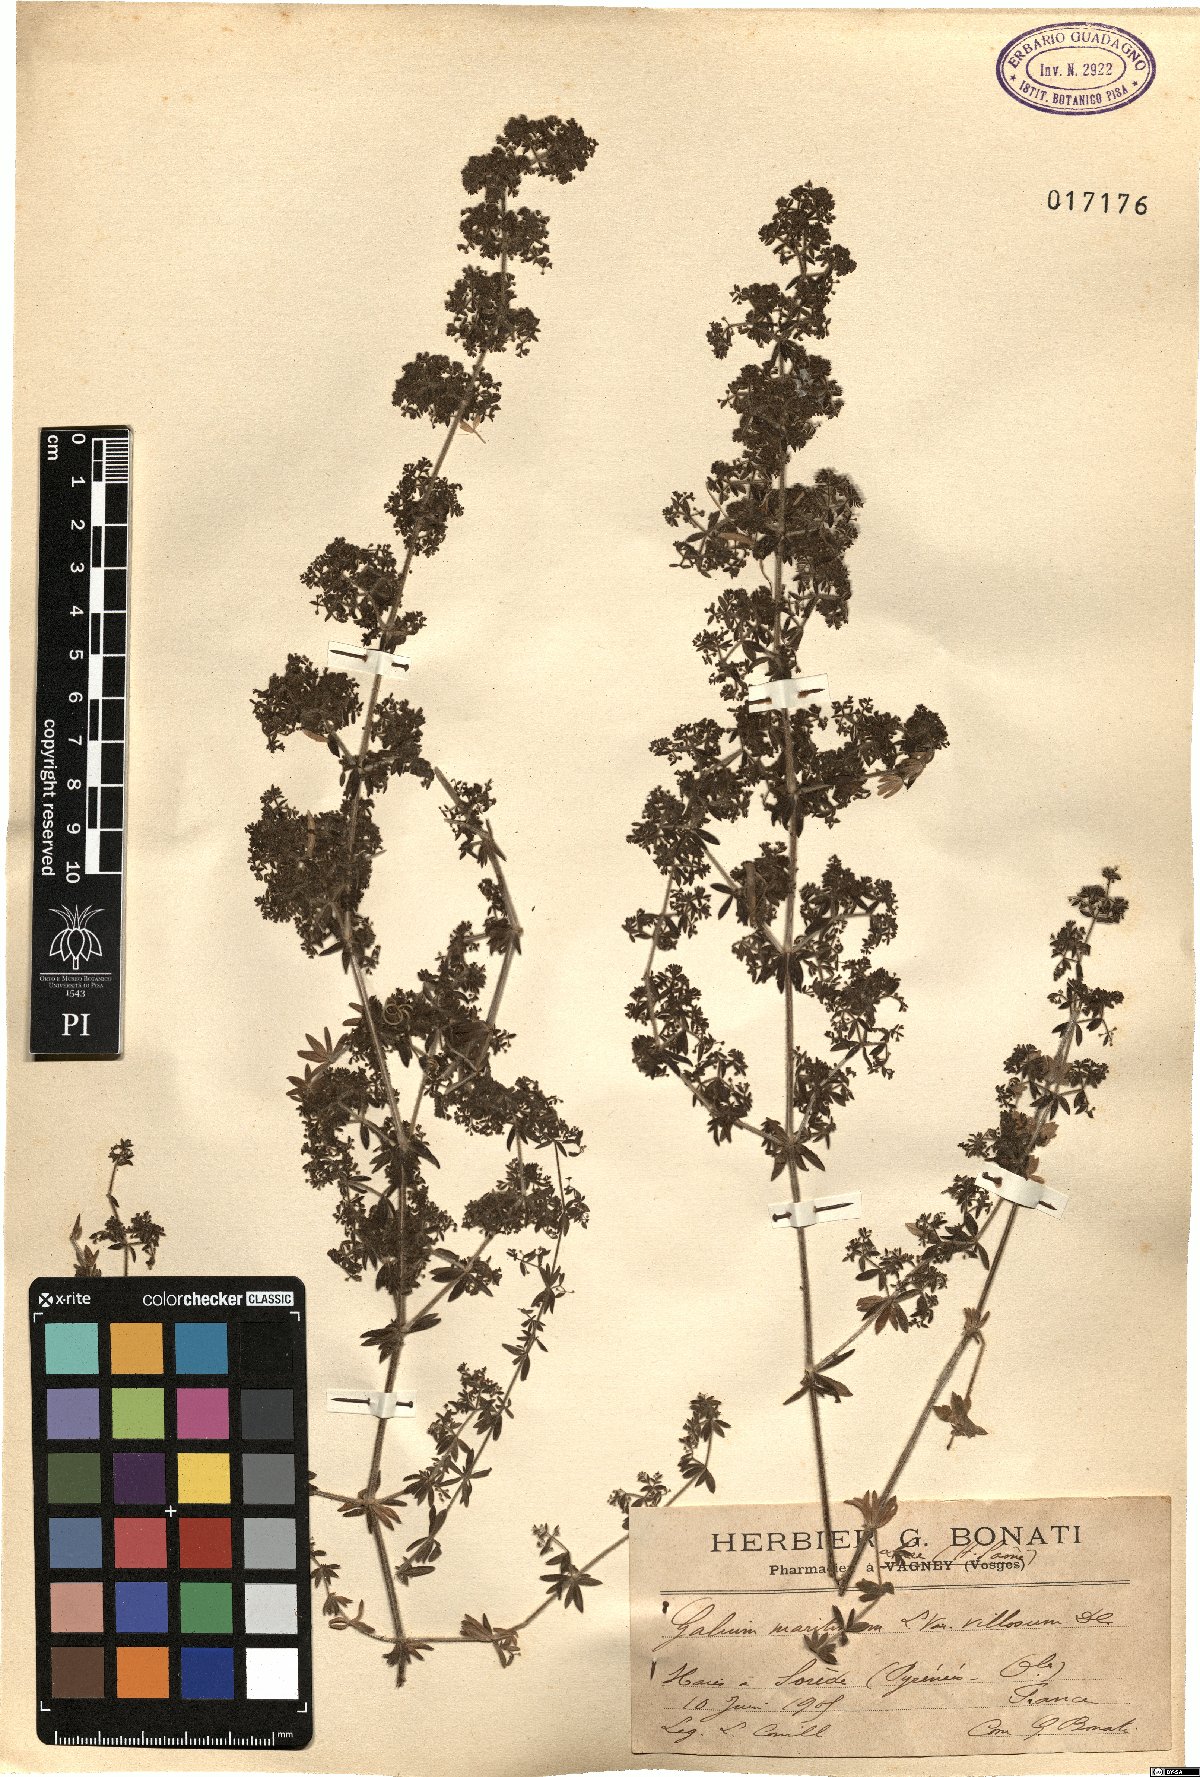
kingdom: Plantae
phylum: Tracheophyta
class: Magnoliopsida
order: Gentianales
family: Rubiaceae
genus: Galium
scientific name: Galium maritimum
